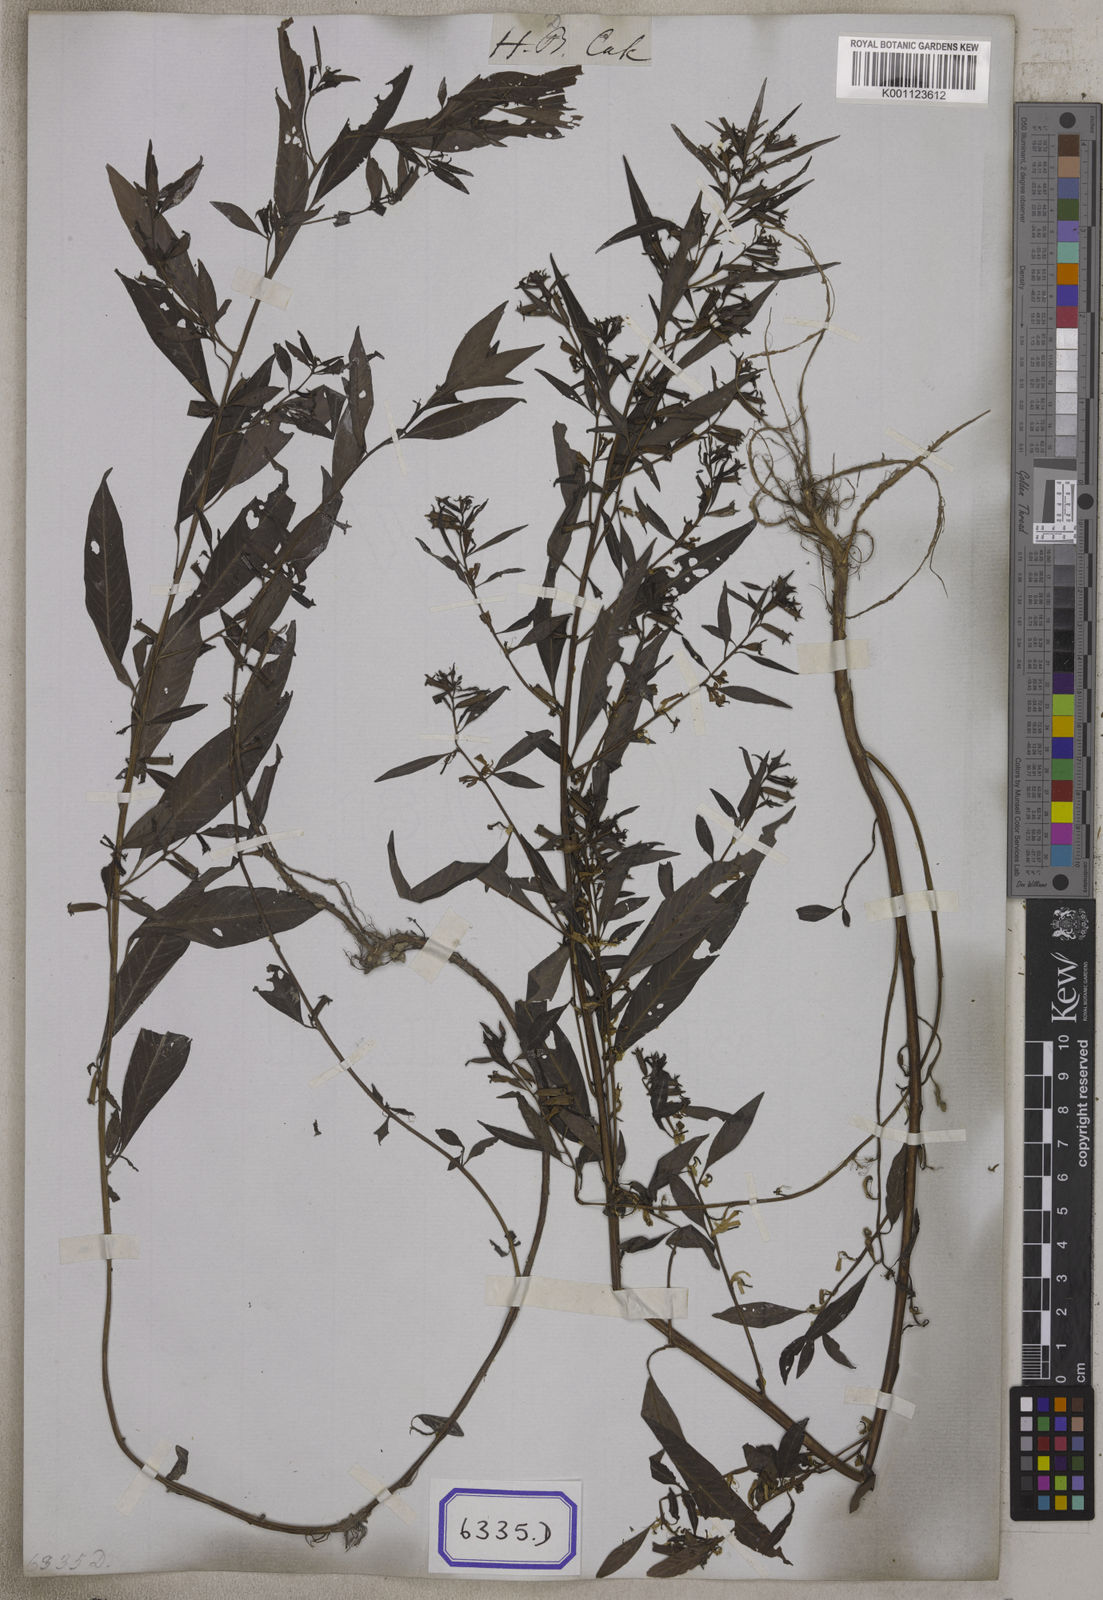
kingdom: Plantae
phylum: Tracheophyta
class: Magnoliopsida
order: Myrtales
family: Onagraceae
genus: Ludwigia
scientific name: Ludwigia perennis
